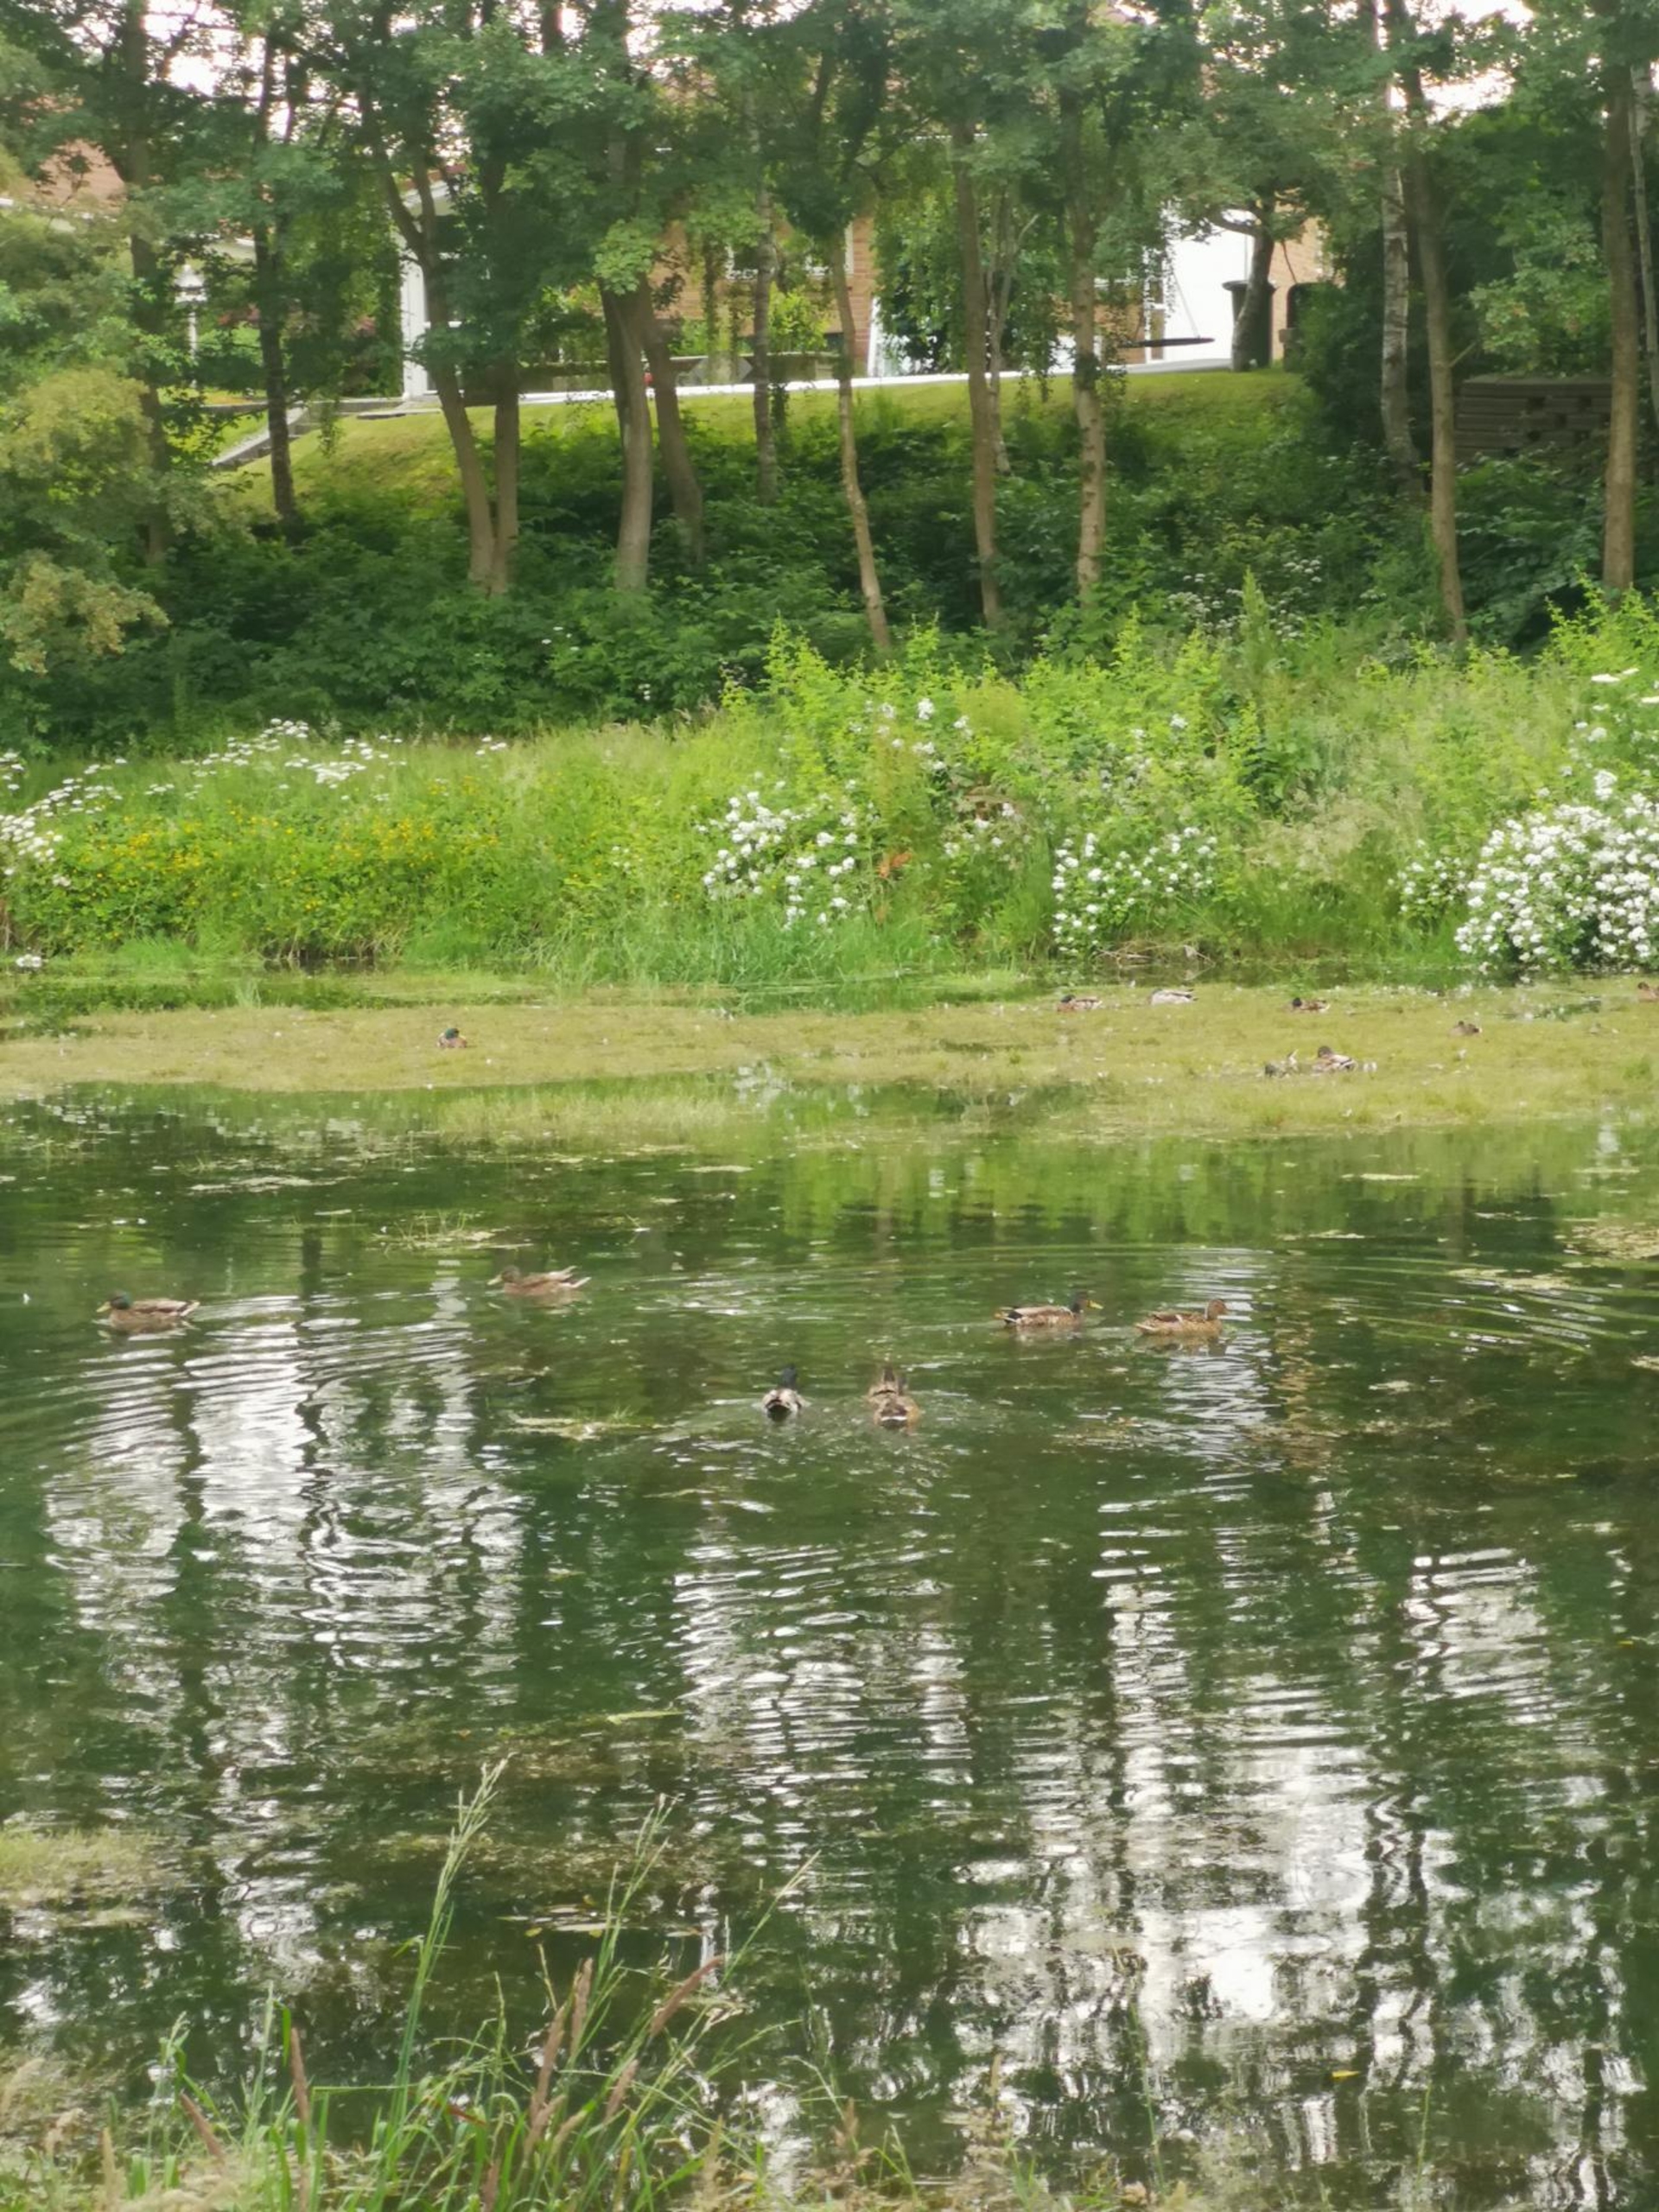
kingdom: Animalia
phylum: Chordata
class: Aves
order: Anseriformes
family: Anatidae
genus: Anas
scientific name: Anas platyrhynchos
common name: Gråand
